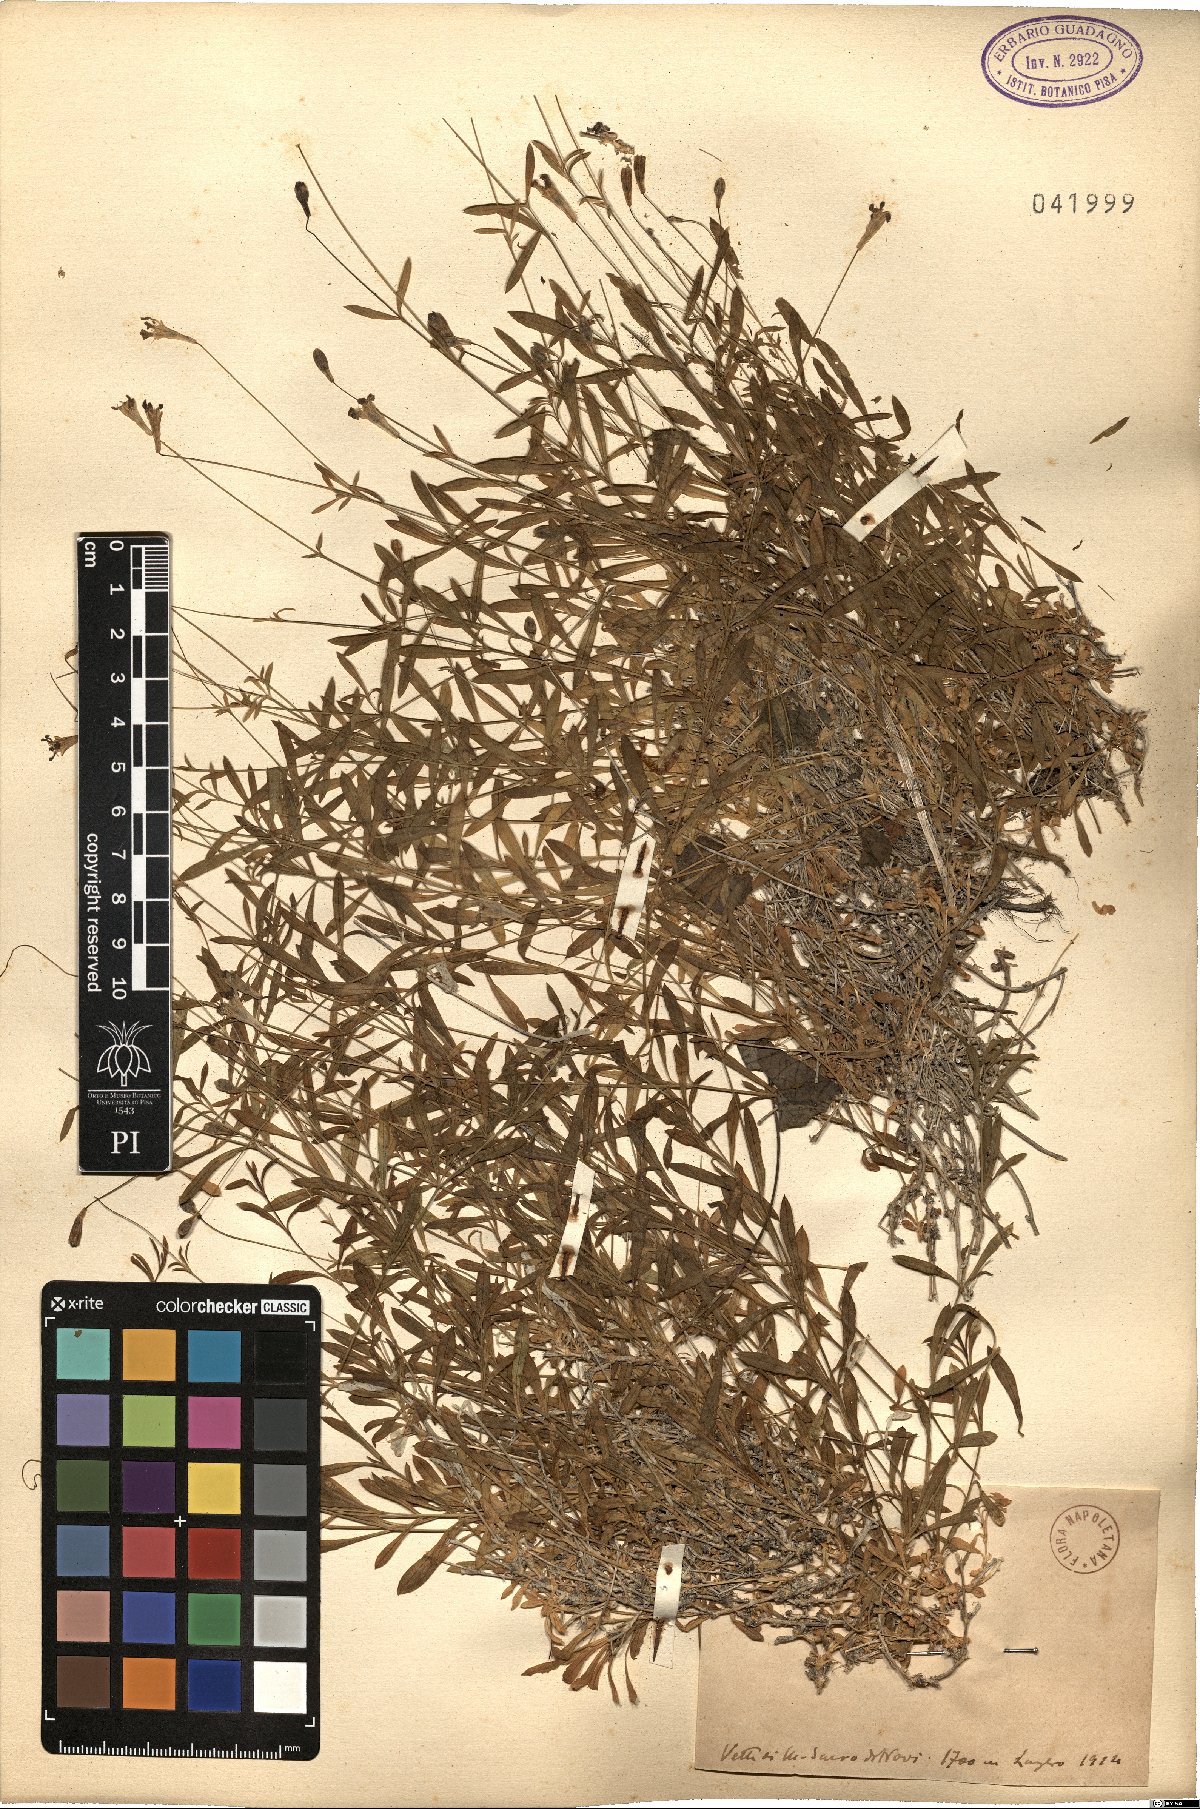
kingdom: Plantae
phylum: Tracheophyta
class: Magnoliopsida
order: Caryophyllales
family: Caryophyllaceae
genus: Silene
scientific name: Silene
